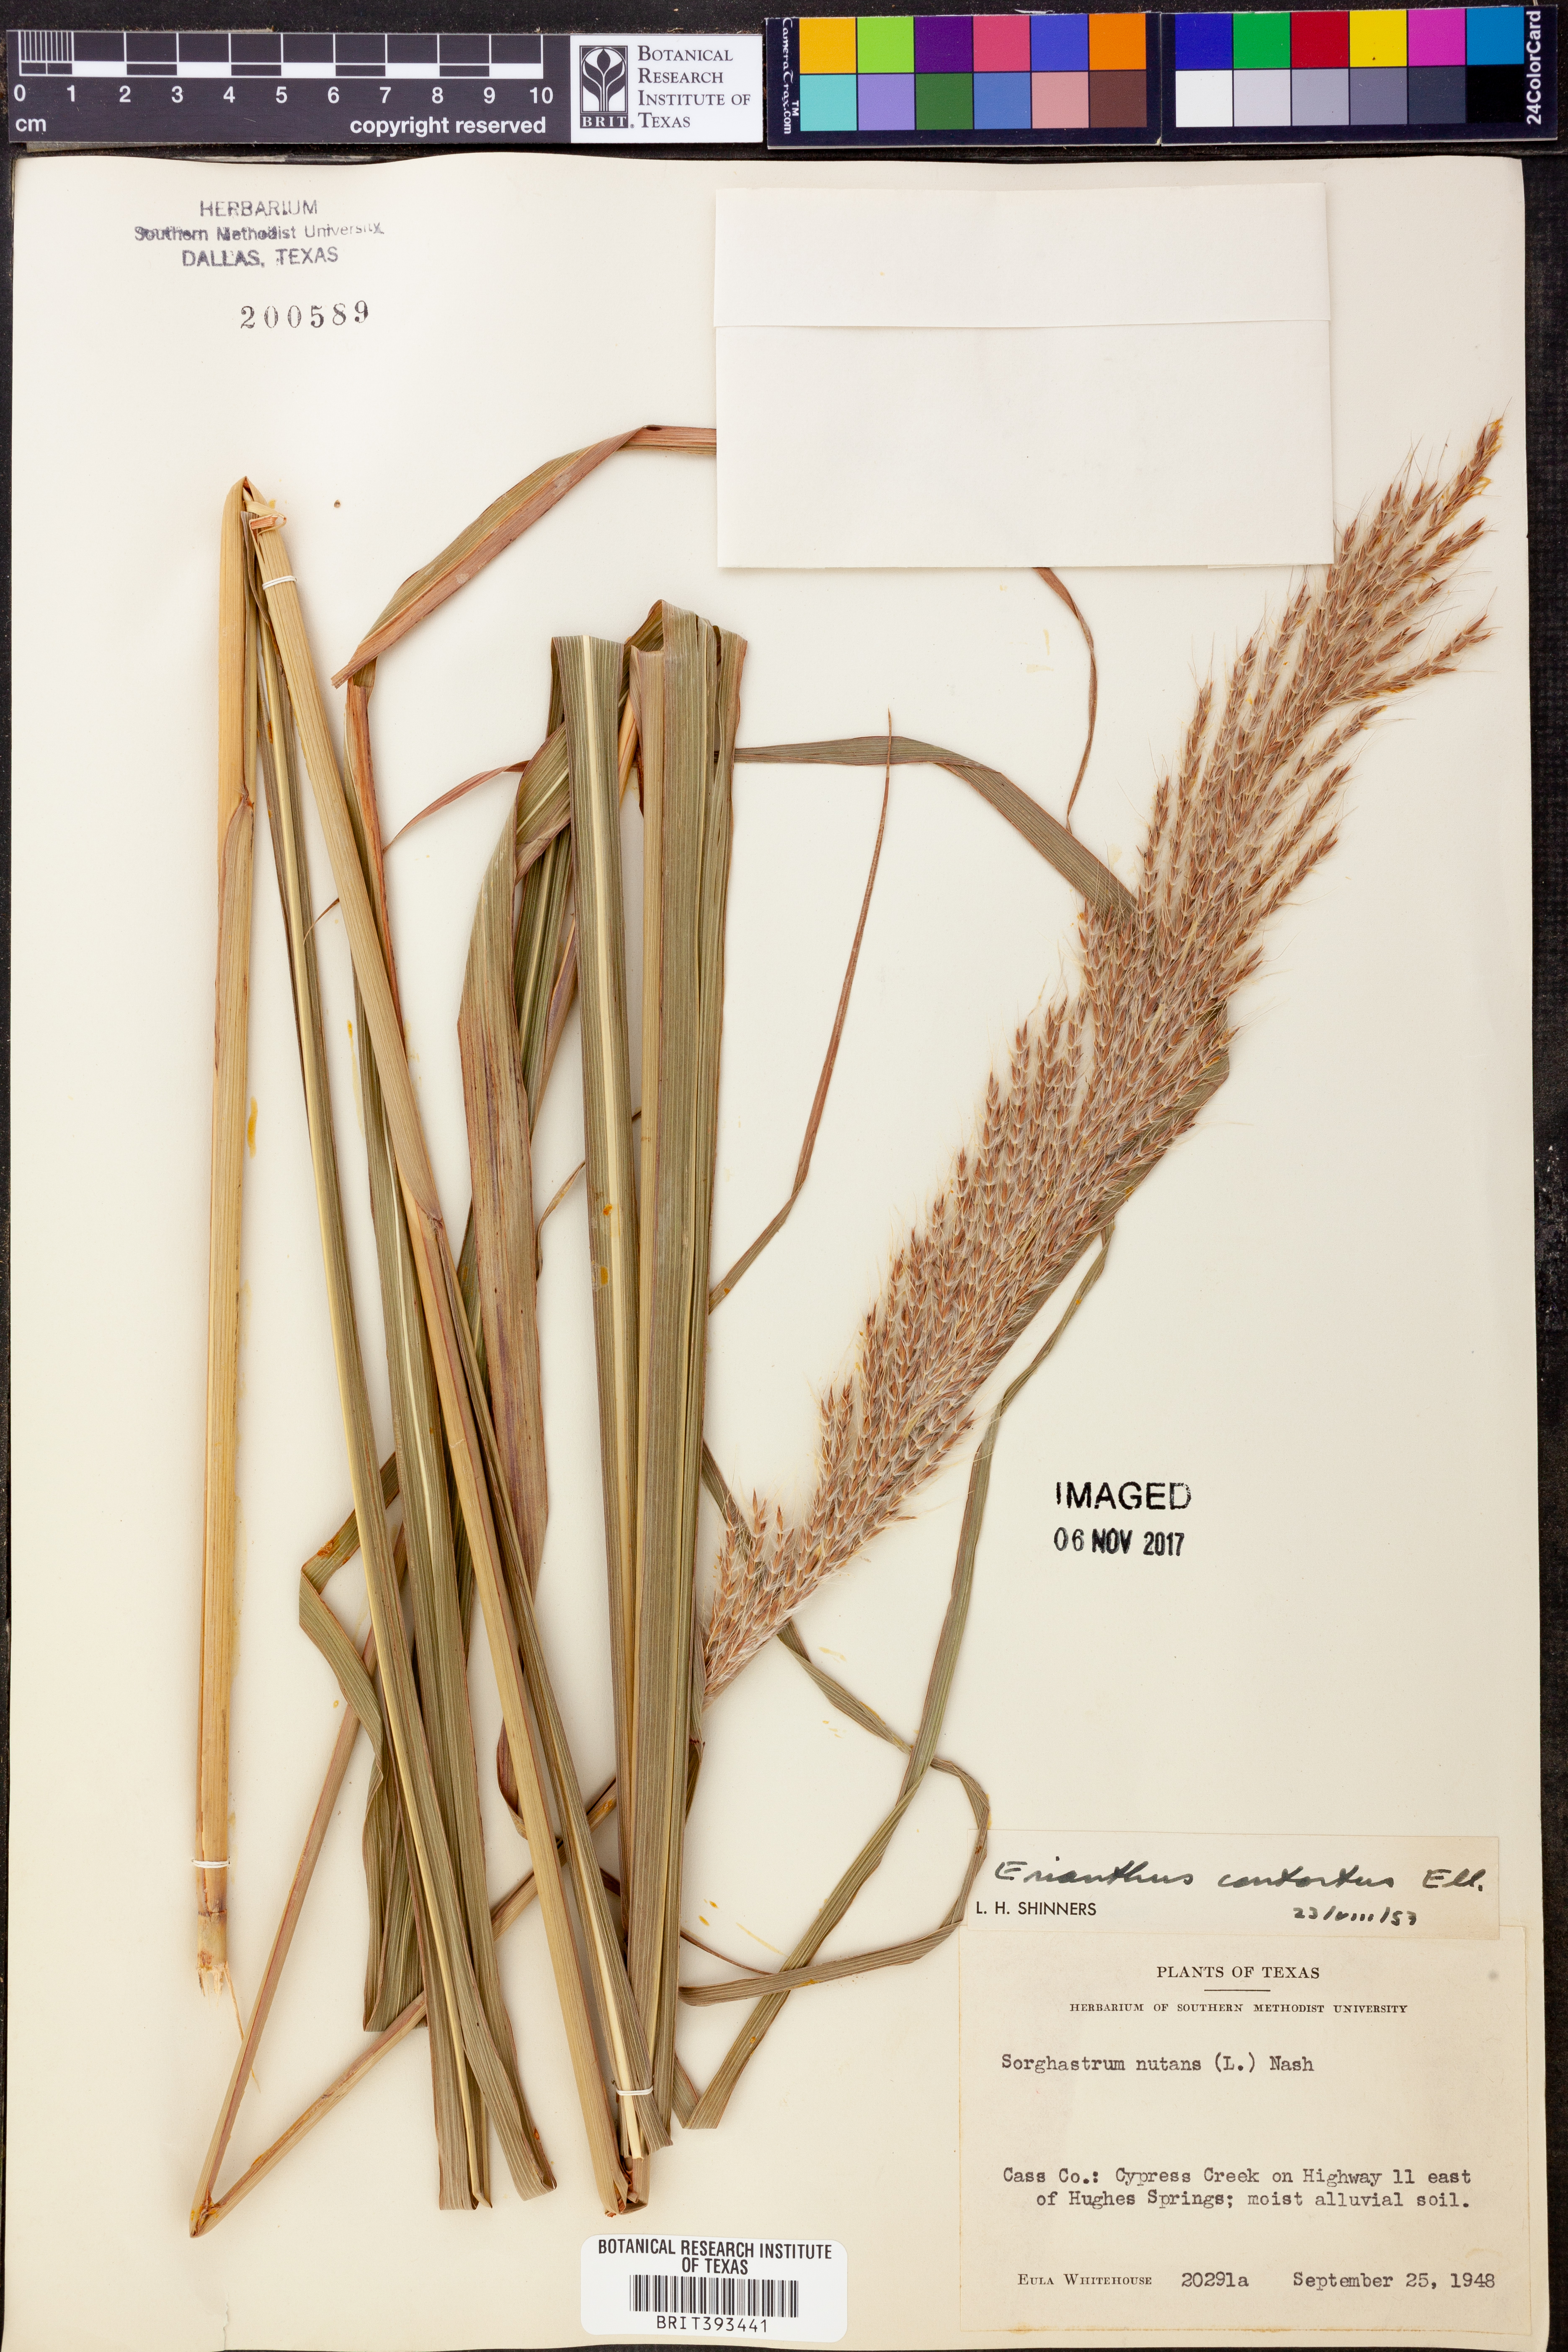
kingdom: Plantae
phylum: Tracheophyta
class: Liliopsida
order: Poales
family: Poaceae
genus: Sorghastrum
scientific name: Sorghastrum nutans
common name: Indian grass
